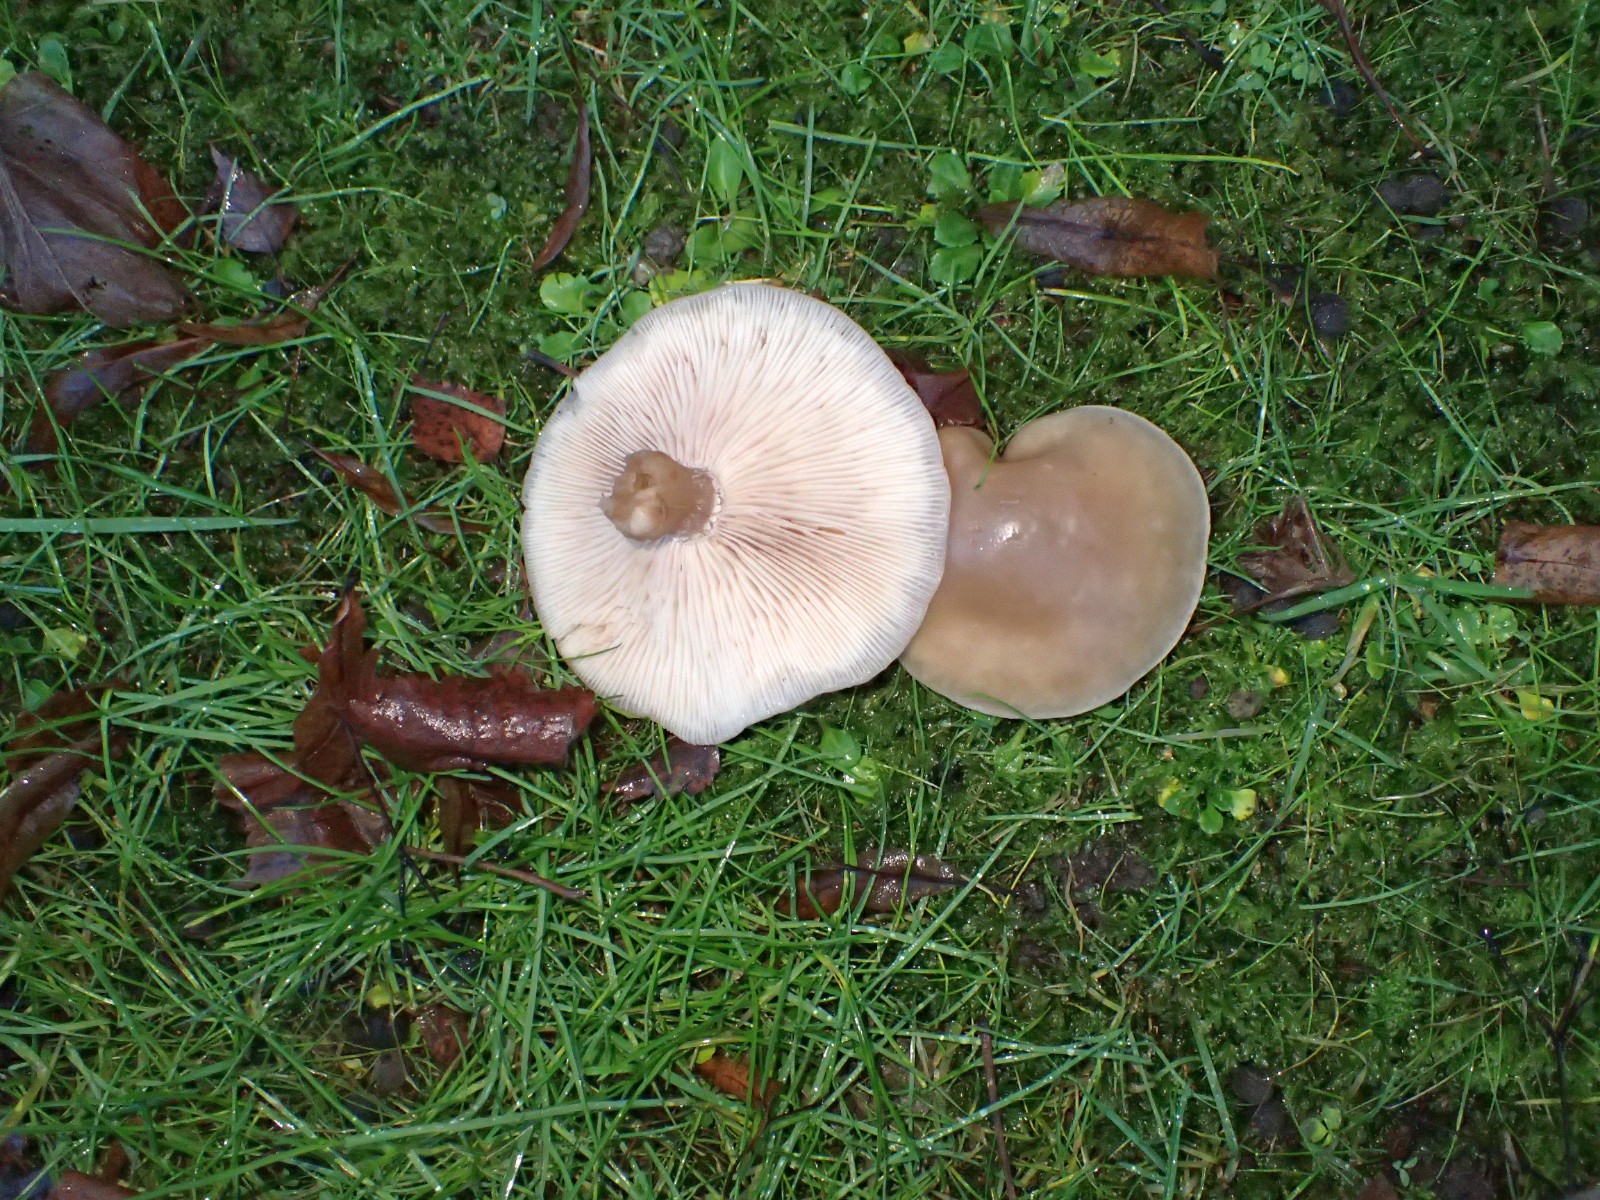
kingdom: Fungi
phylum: Basidiomycota
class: Agaricomycetes
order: Agaricales
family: Tricholomataceae
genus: Lepista
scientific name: Lepista personata
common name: bleg hekseringshat
